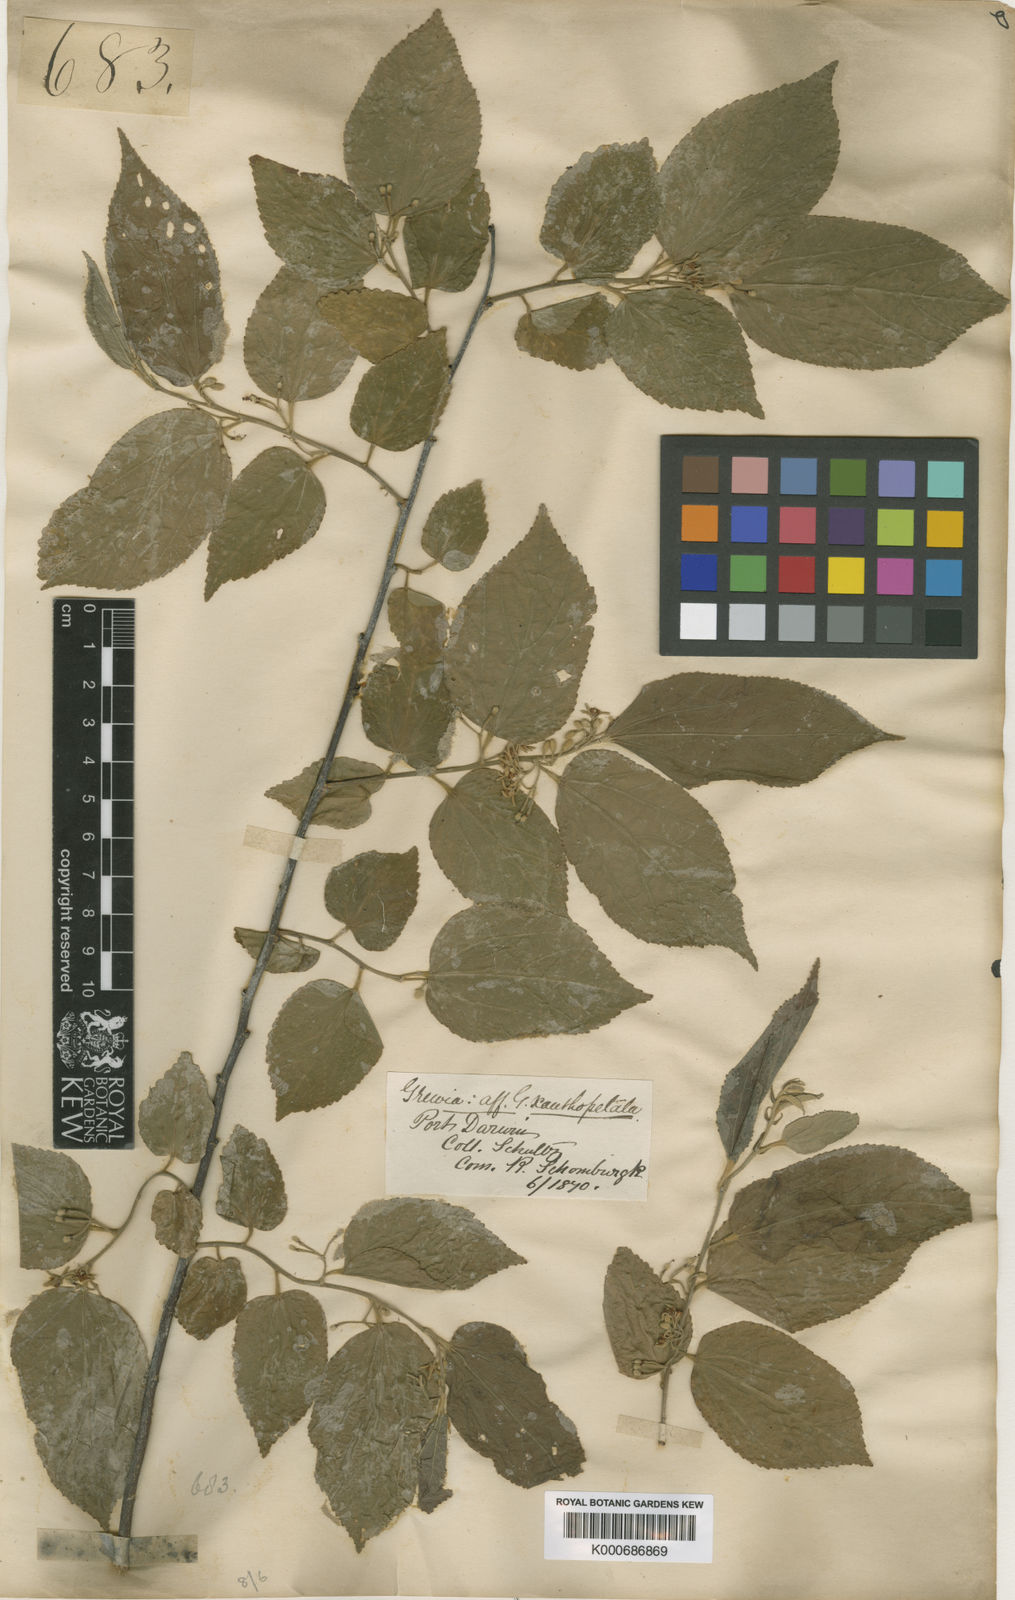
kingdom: Plantae
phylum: Tracheophyta
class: Magnoliopsida
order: Malvales
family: Malvaceae
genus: Grewia
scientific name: Grewia xanthopetala
